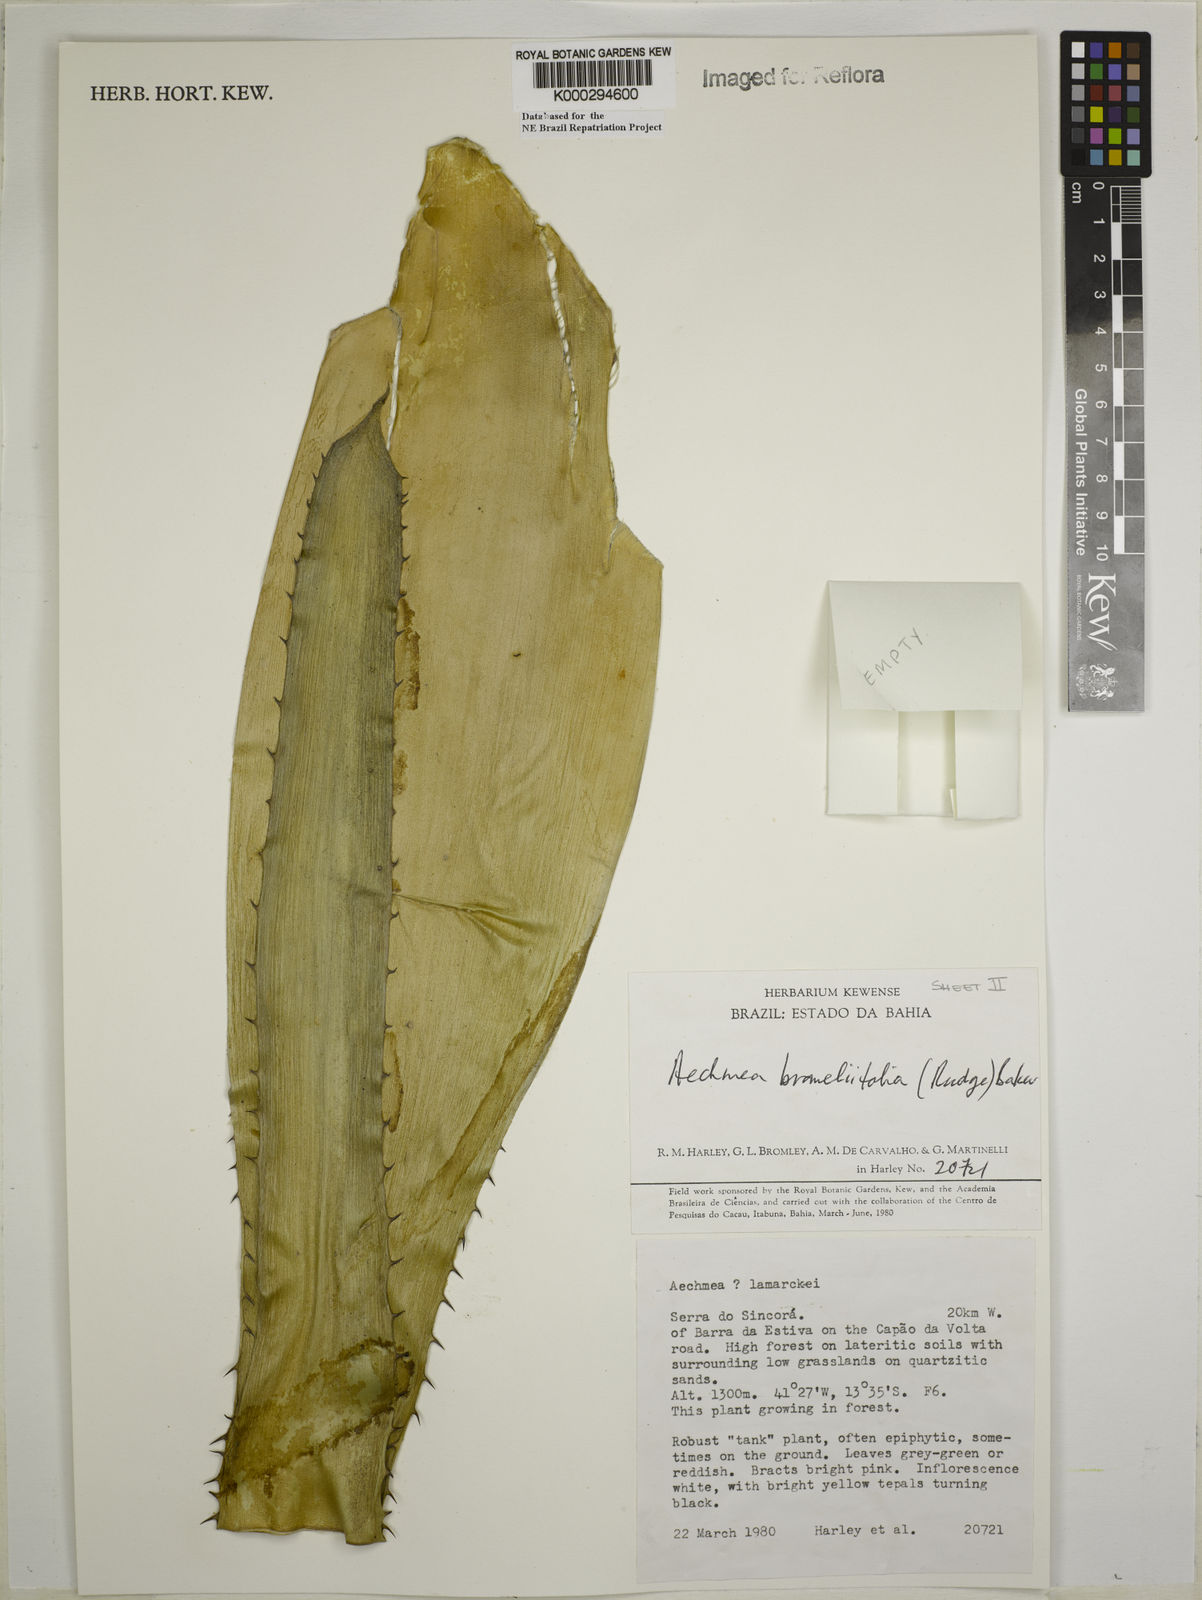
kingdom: Plantae
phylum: Tracheophyta
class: Liliopsida
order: Poales
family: Bromeliaceae
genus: Aechmea
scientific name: Aechmea
